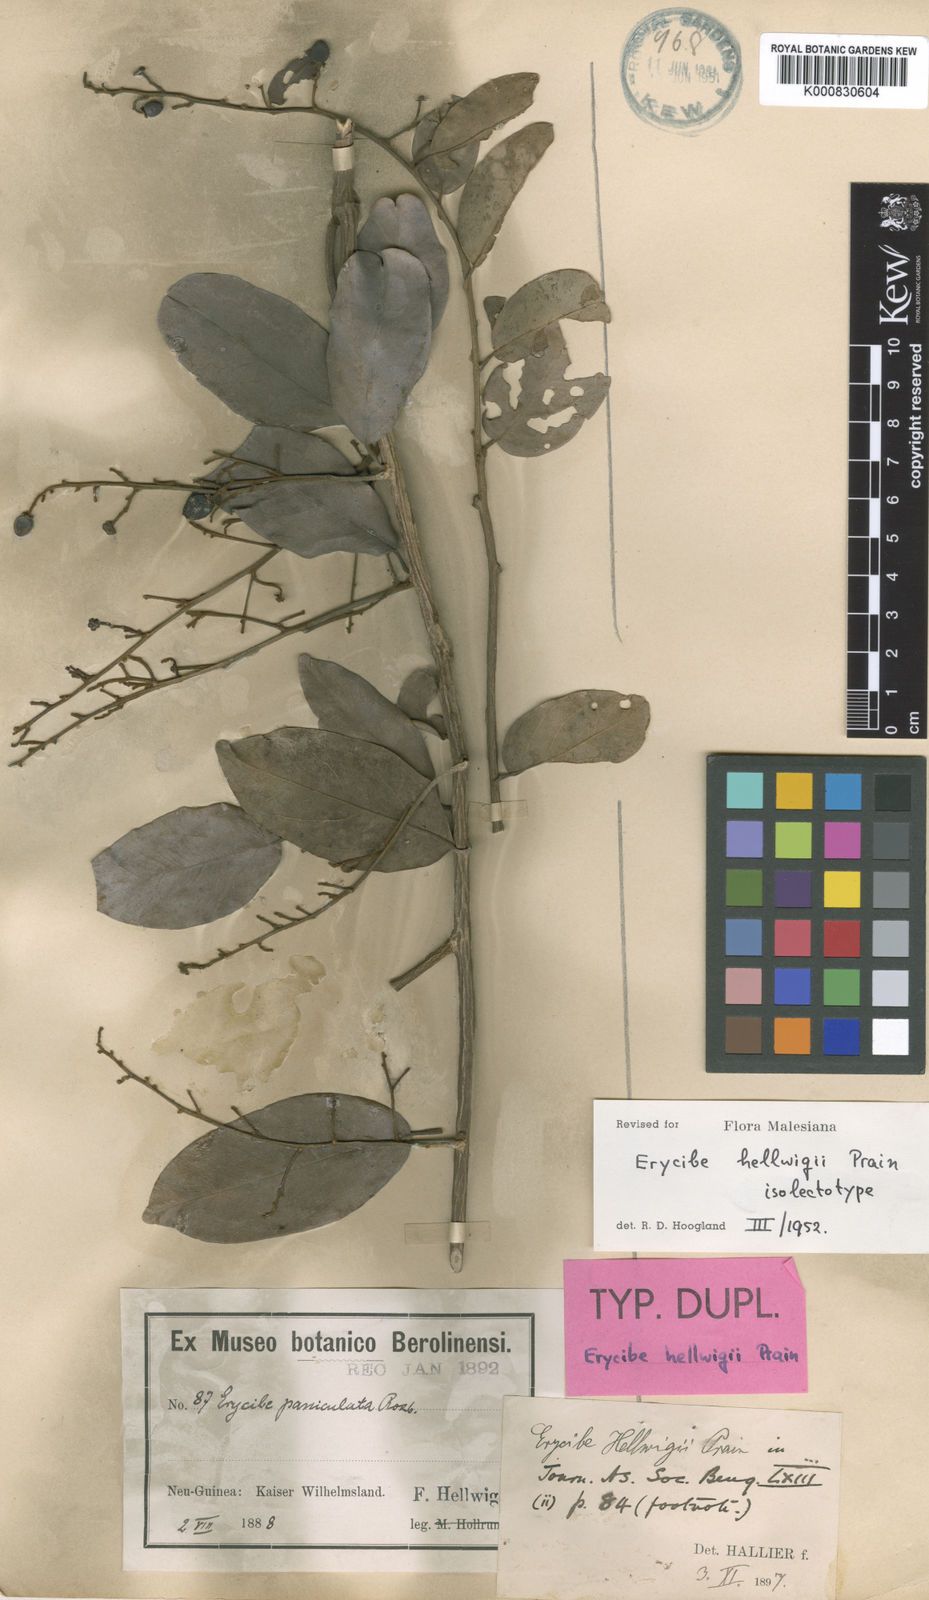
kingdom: Plantae
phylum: Tracheophyta
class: Magnoliopsida
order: Solanales
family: Convolvulaceae
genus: Erycibe
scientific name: Erycibe hellwigii
